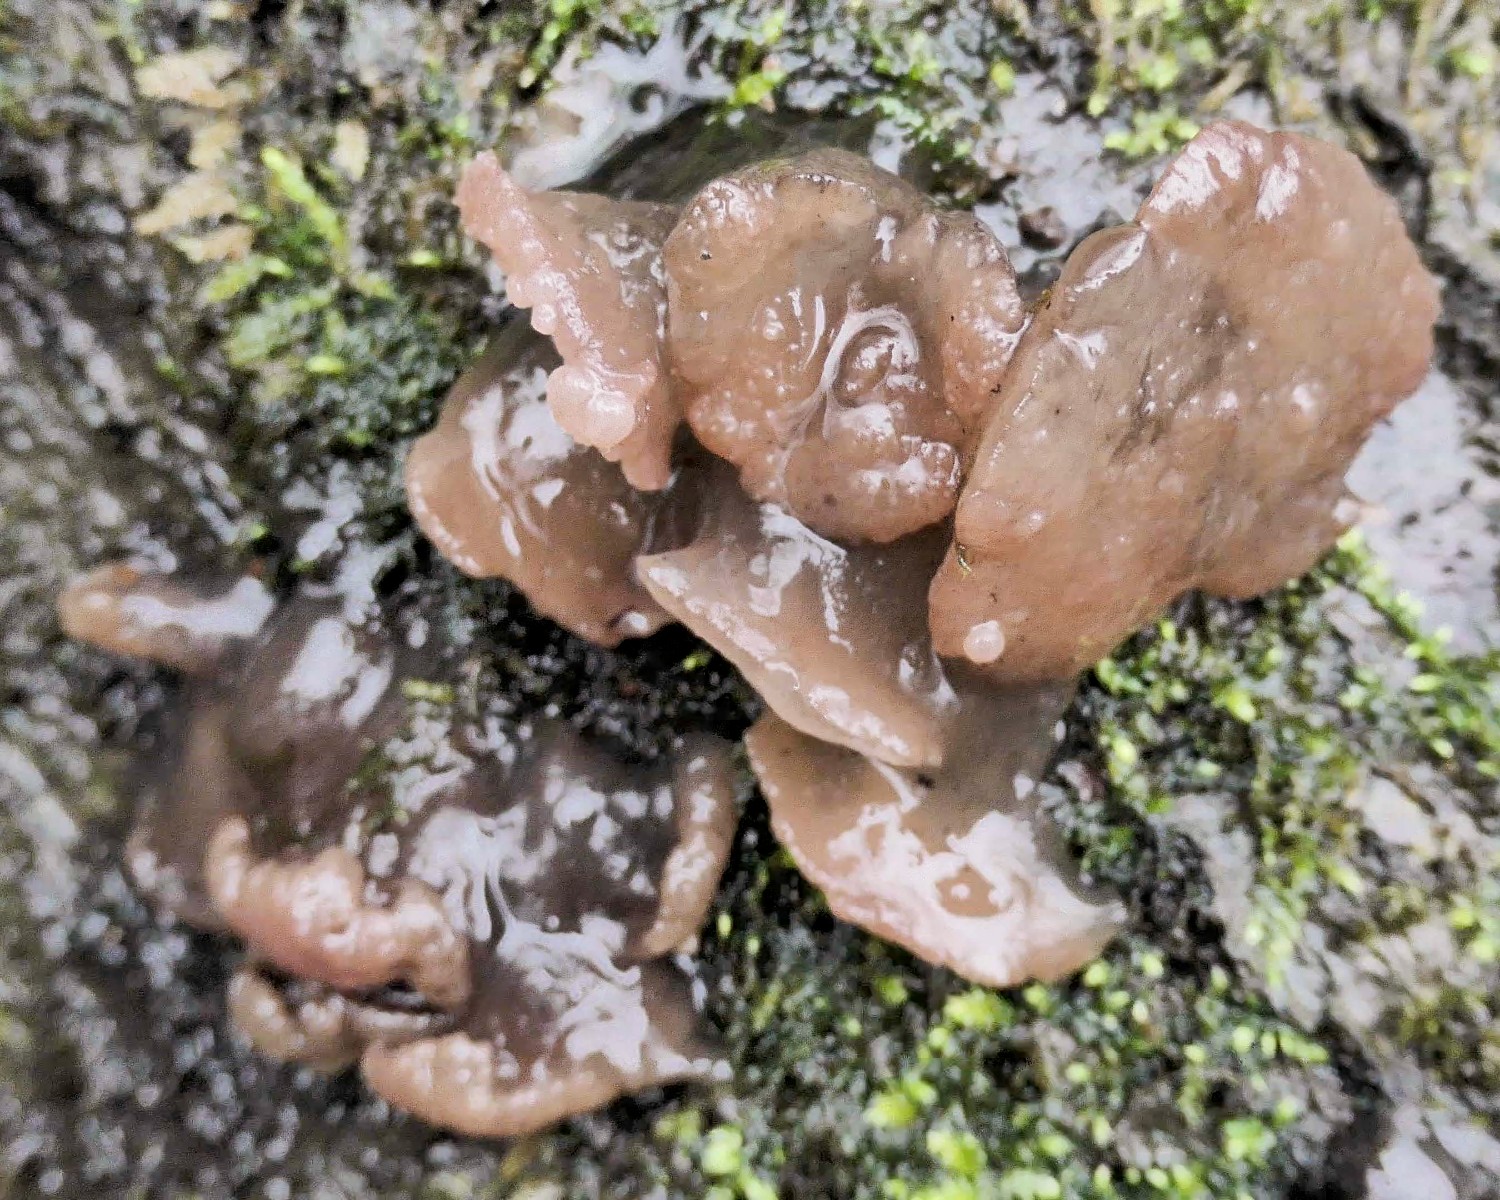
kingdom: Fungi
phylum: Ascomycota
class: Leotiomycetes
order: Helotiales
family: Gelatinodiscaceae
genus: Neobulgaria
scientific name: Neobulgaria pura
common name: bleg bævreskive
